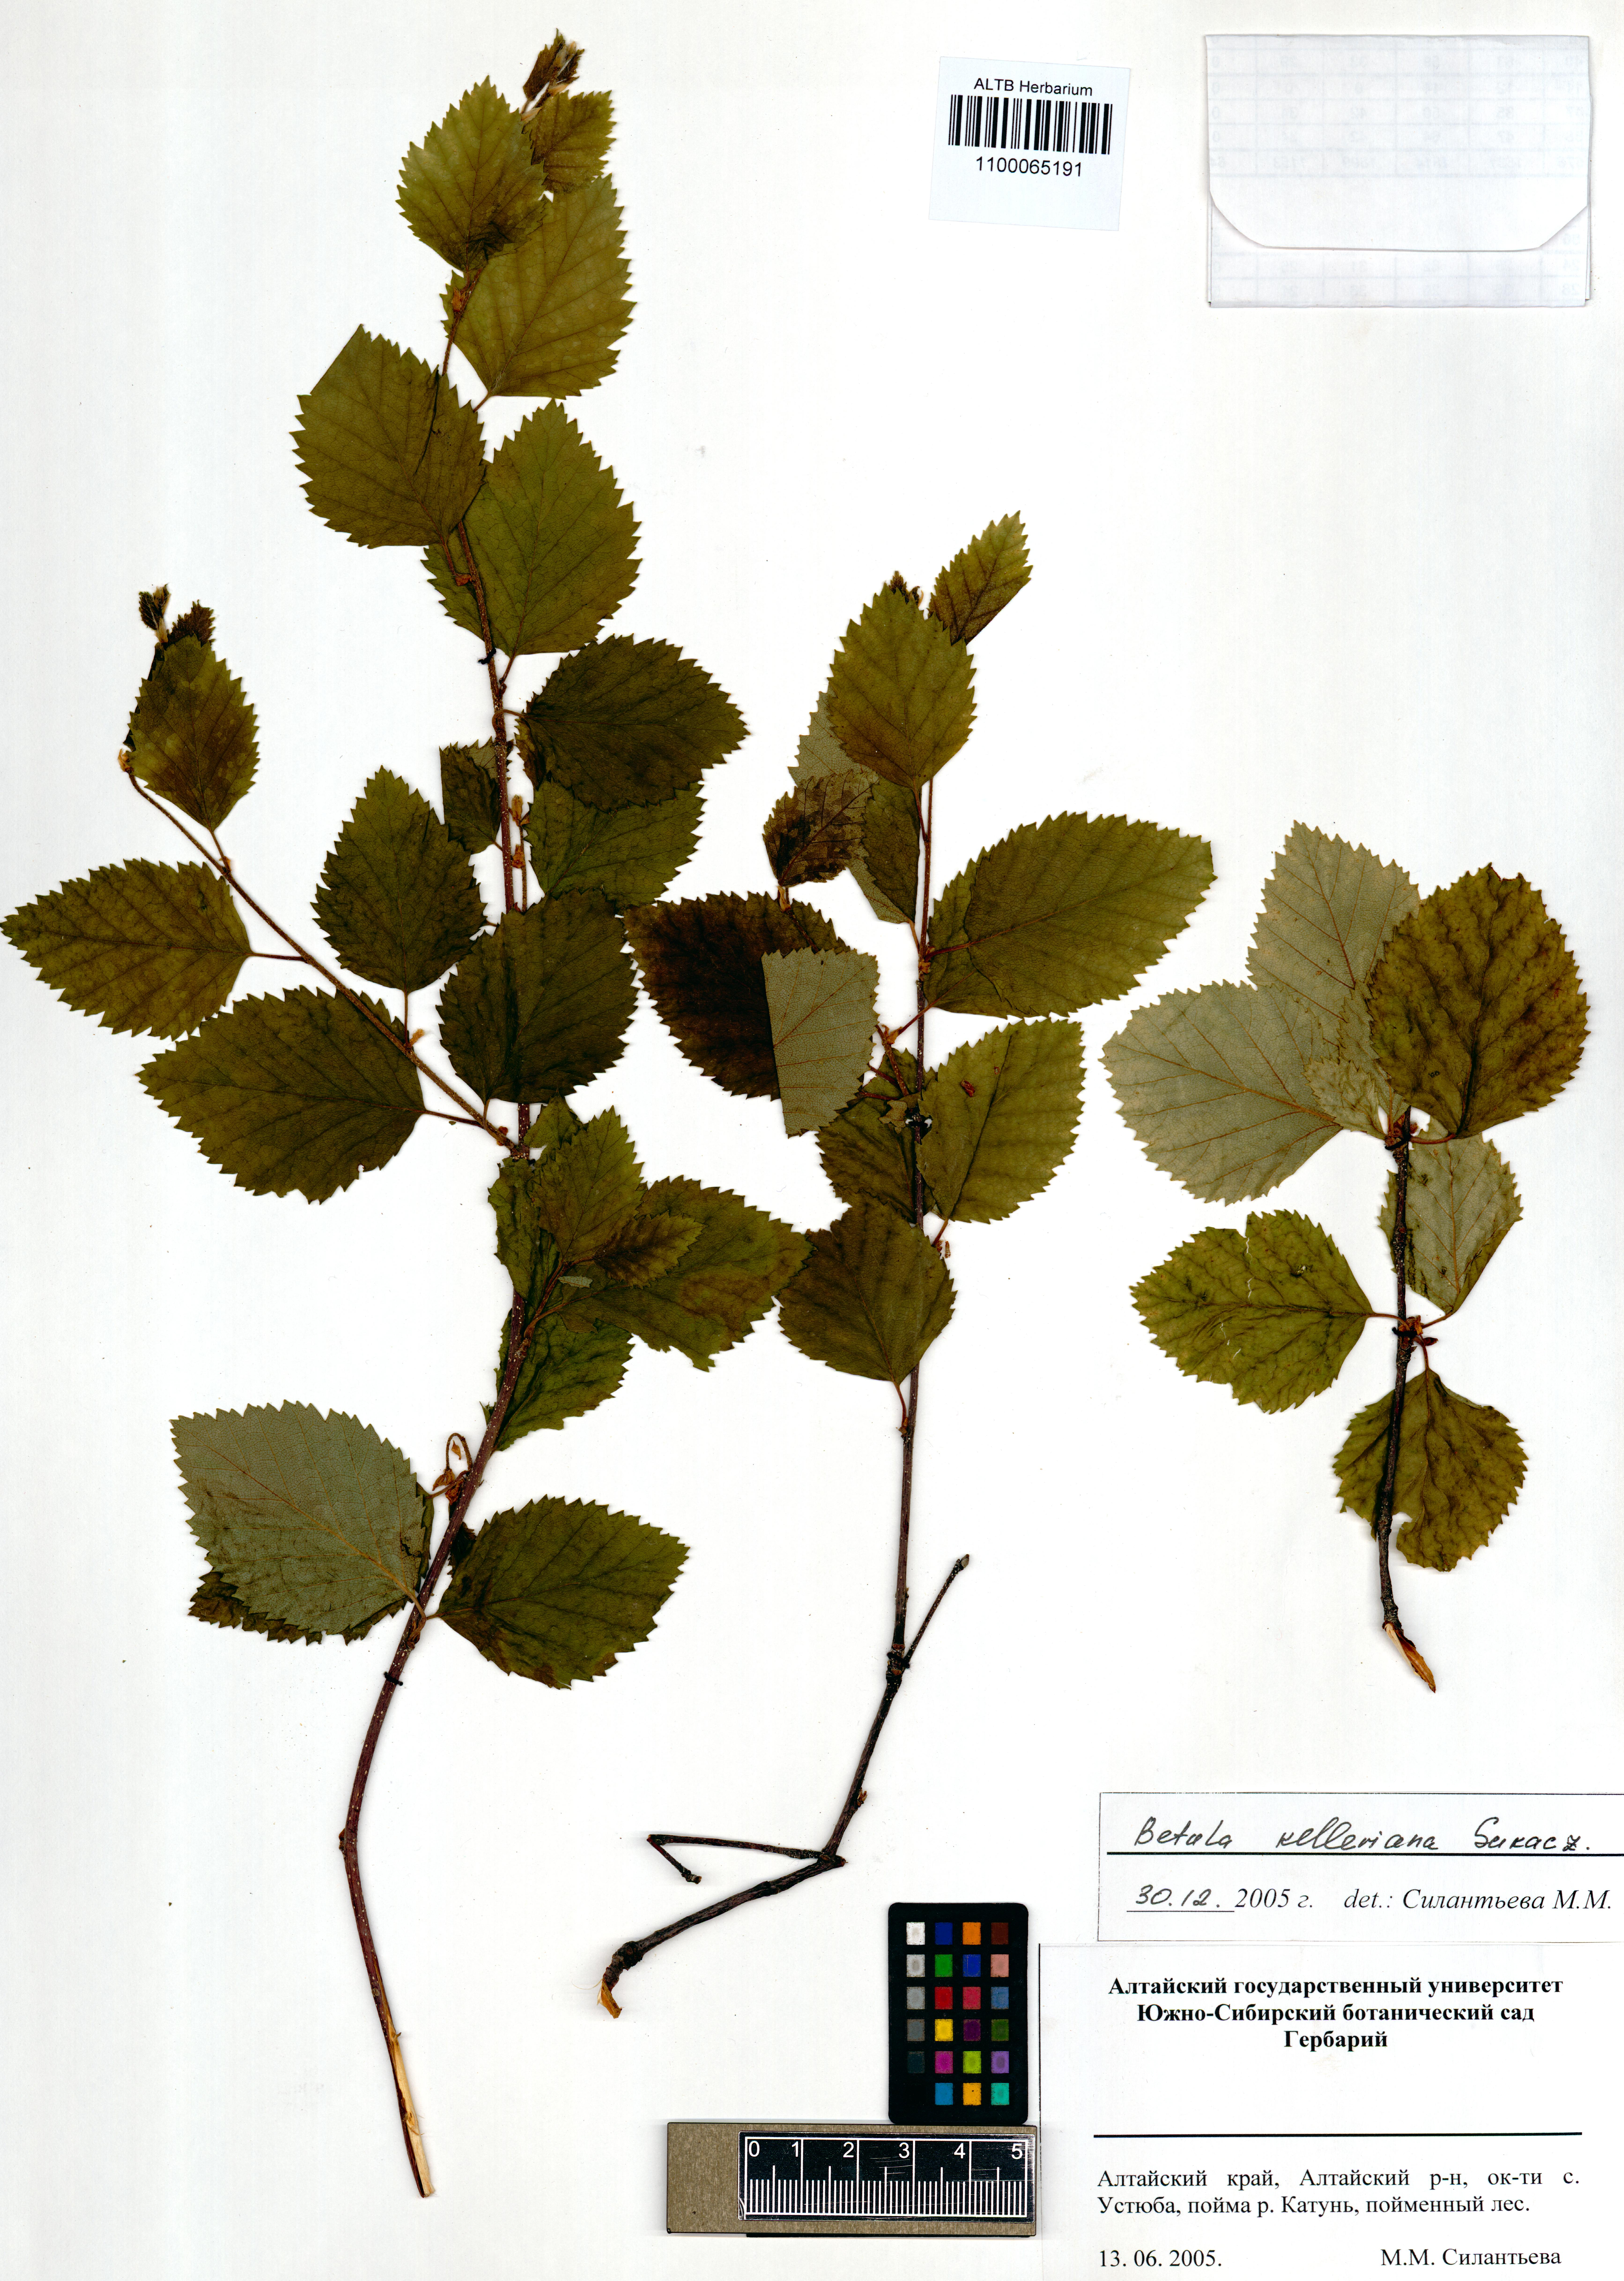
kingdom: Plantae
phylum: Tracheophyta
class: Magnoliopsida
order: Fagales
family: Betulaceae
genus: Betula
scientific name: Betula microphylla
